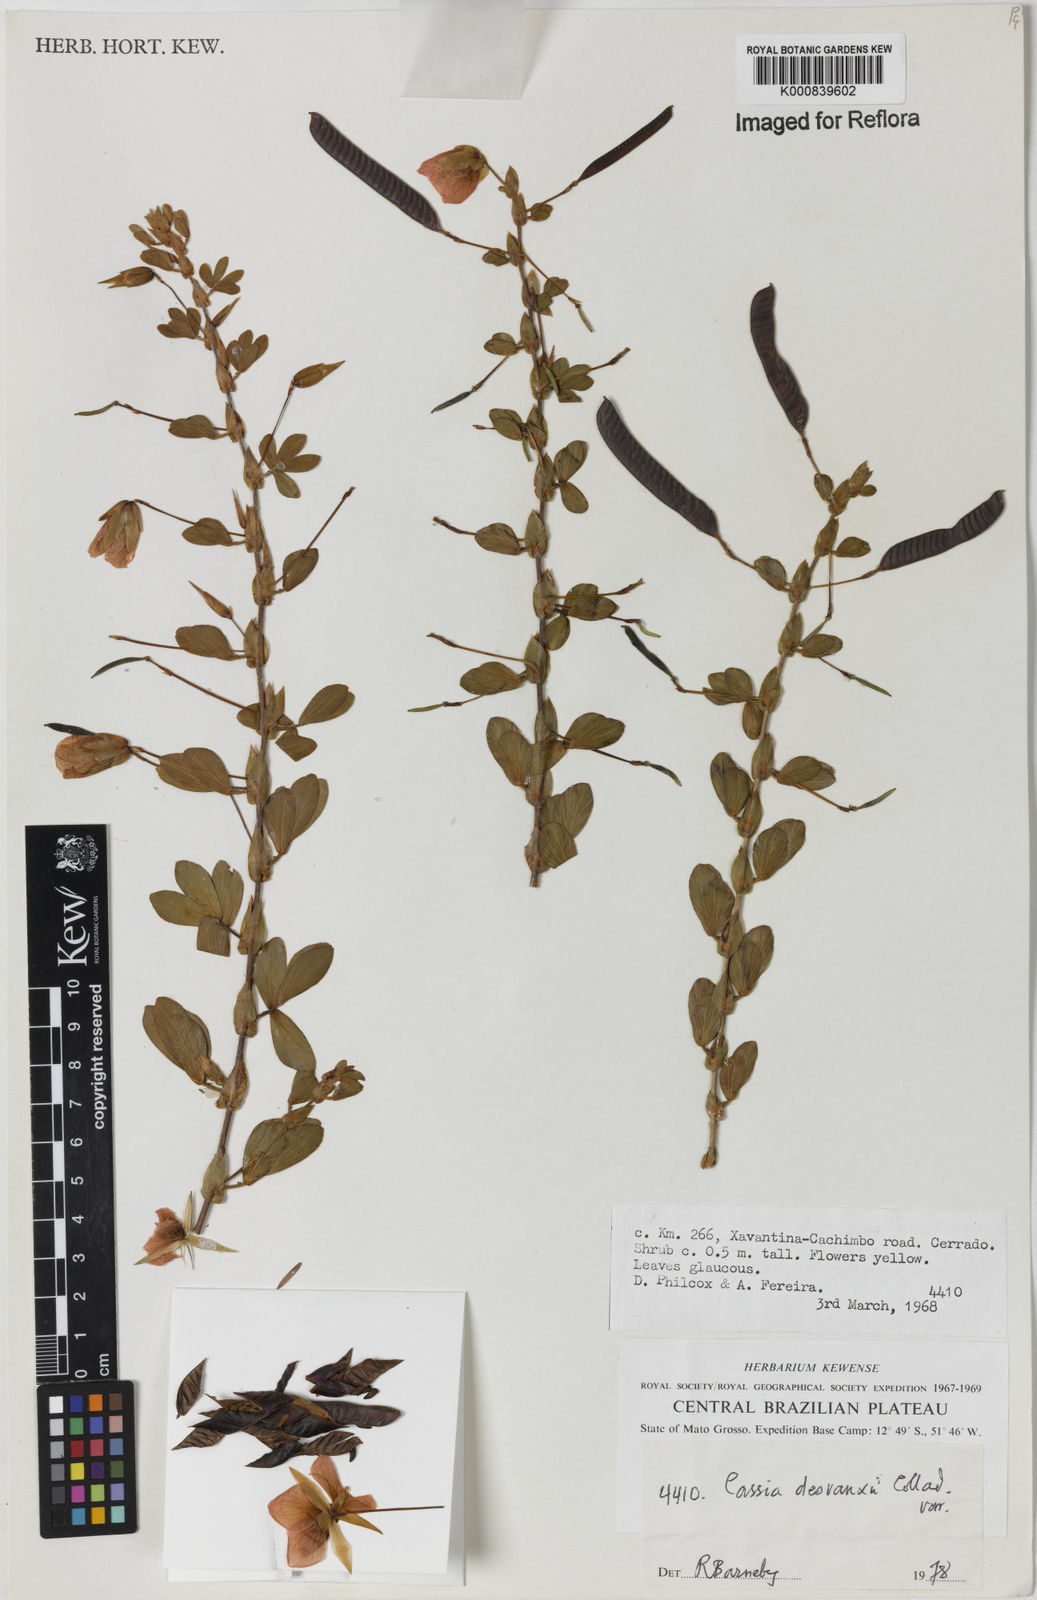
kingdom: Plantae
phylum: Tracheophyta
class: Magnoliopsida
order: Fabales
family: Fabaceae
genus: Chamaecrista
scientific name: Chamaecrista desvauxii
